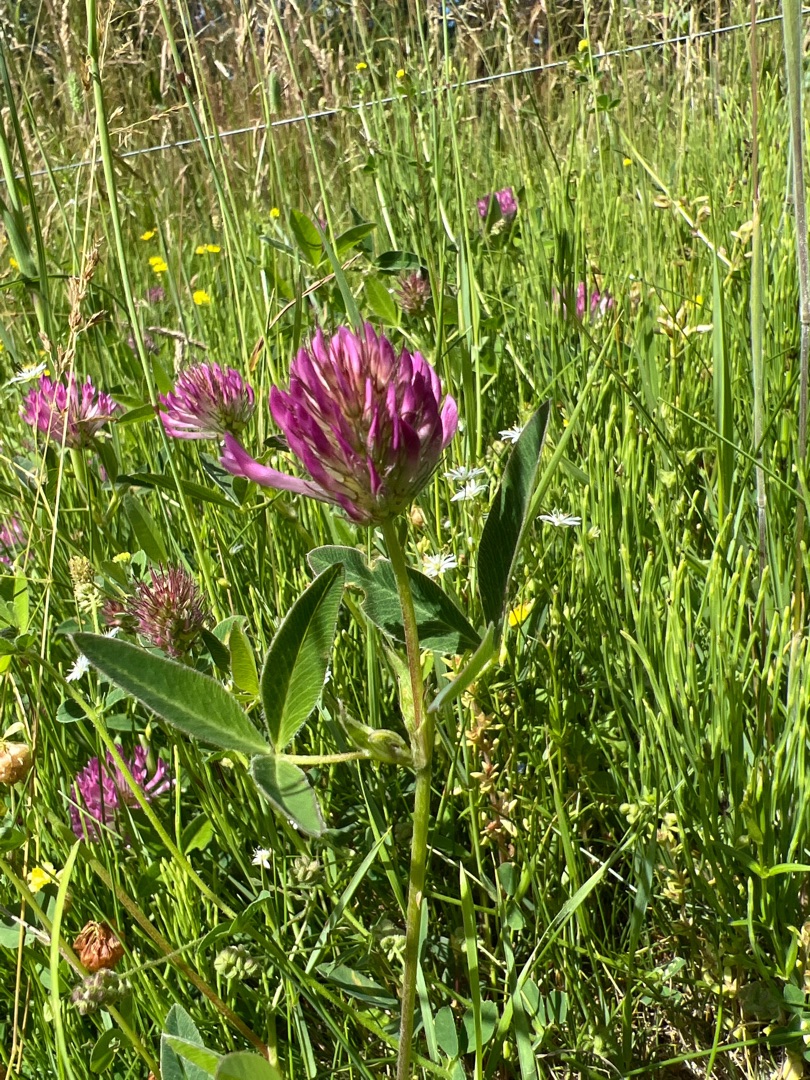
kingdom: Plantae
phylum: Tracheophyta
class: Magnoliopsida
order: Fabales
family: Fabaceae
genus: Trifolium
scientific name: Trifolium medium
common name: Bugtet kløver
